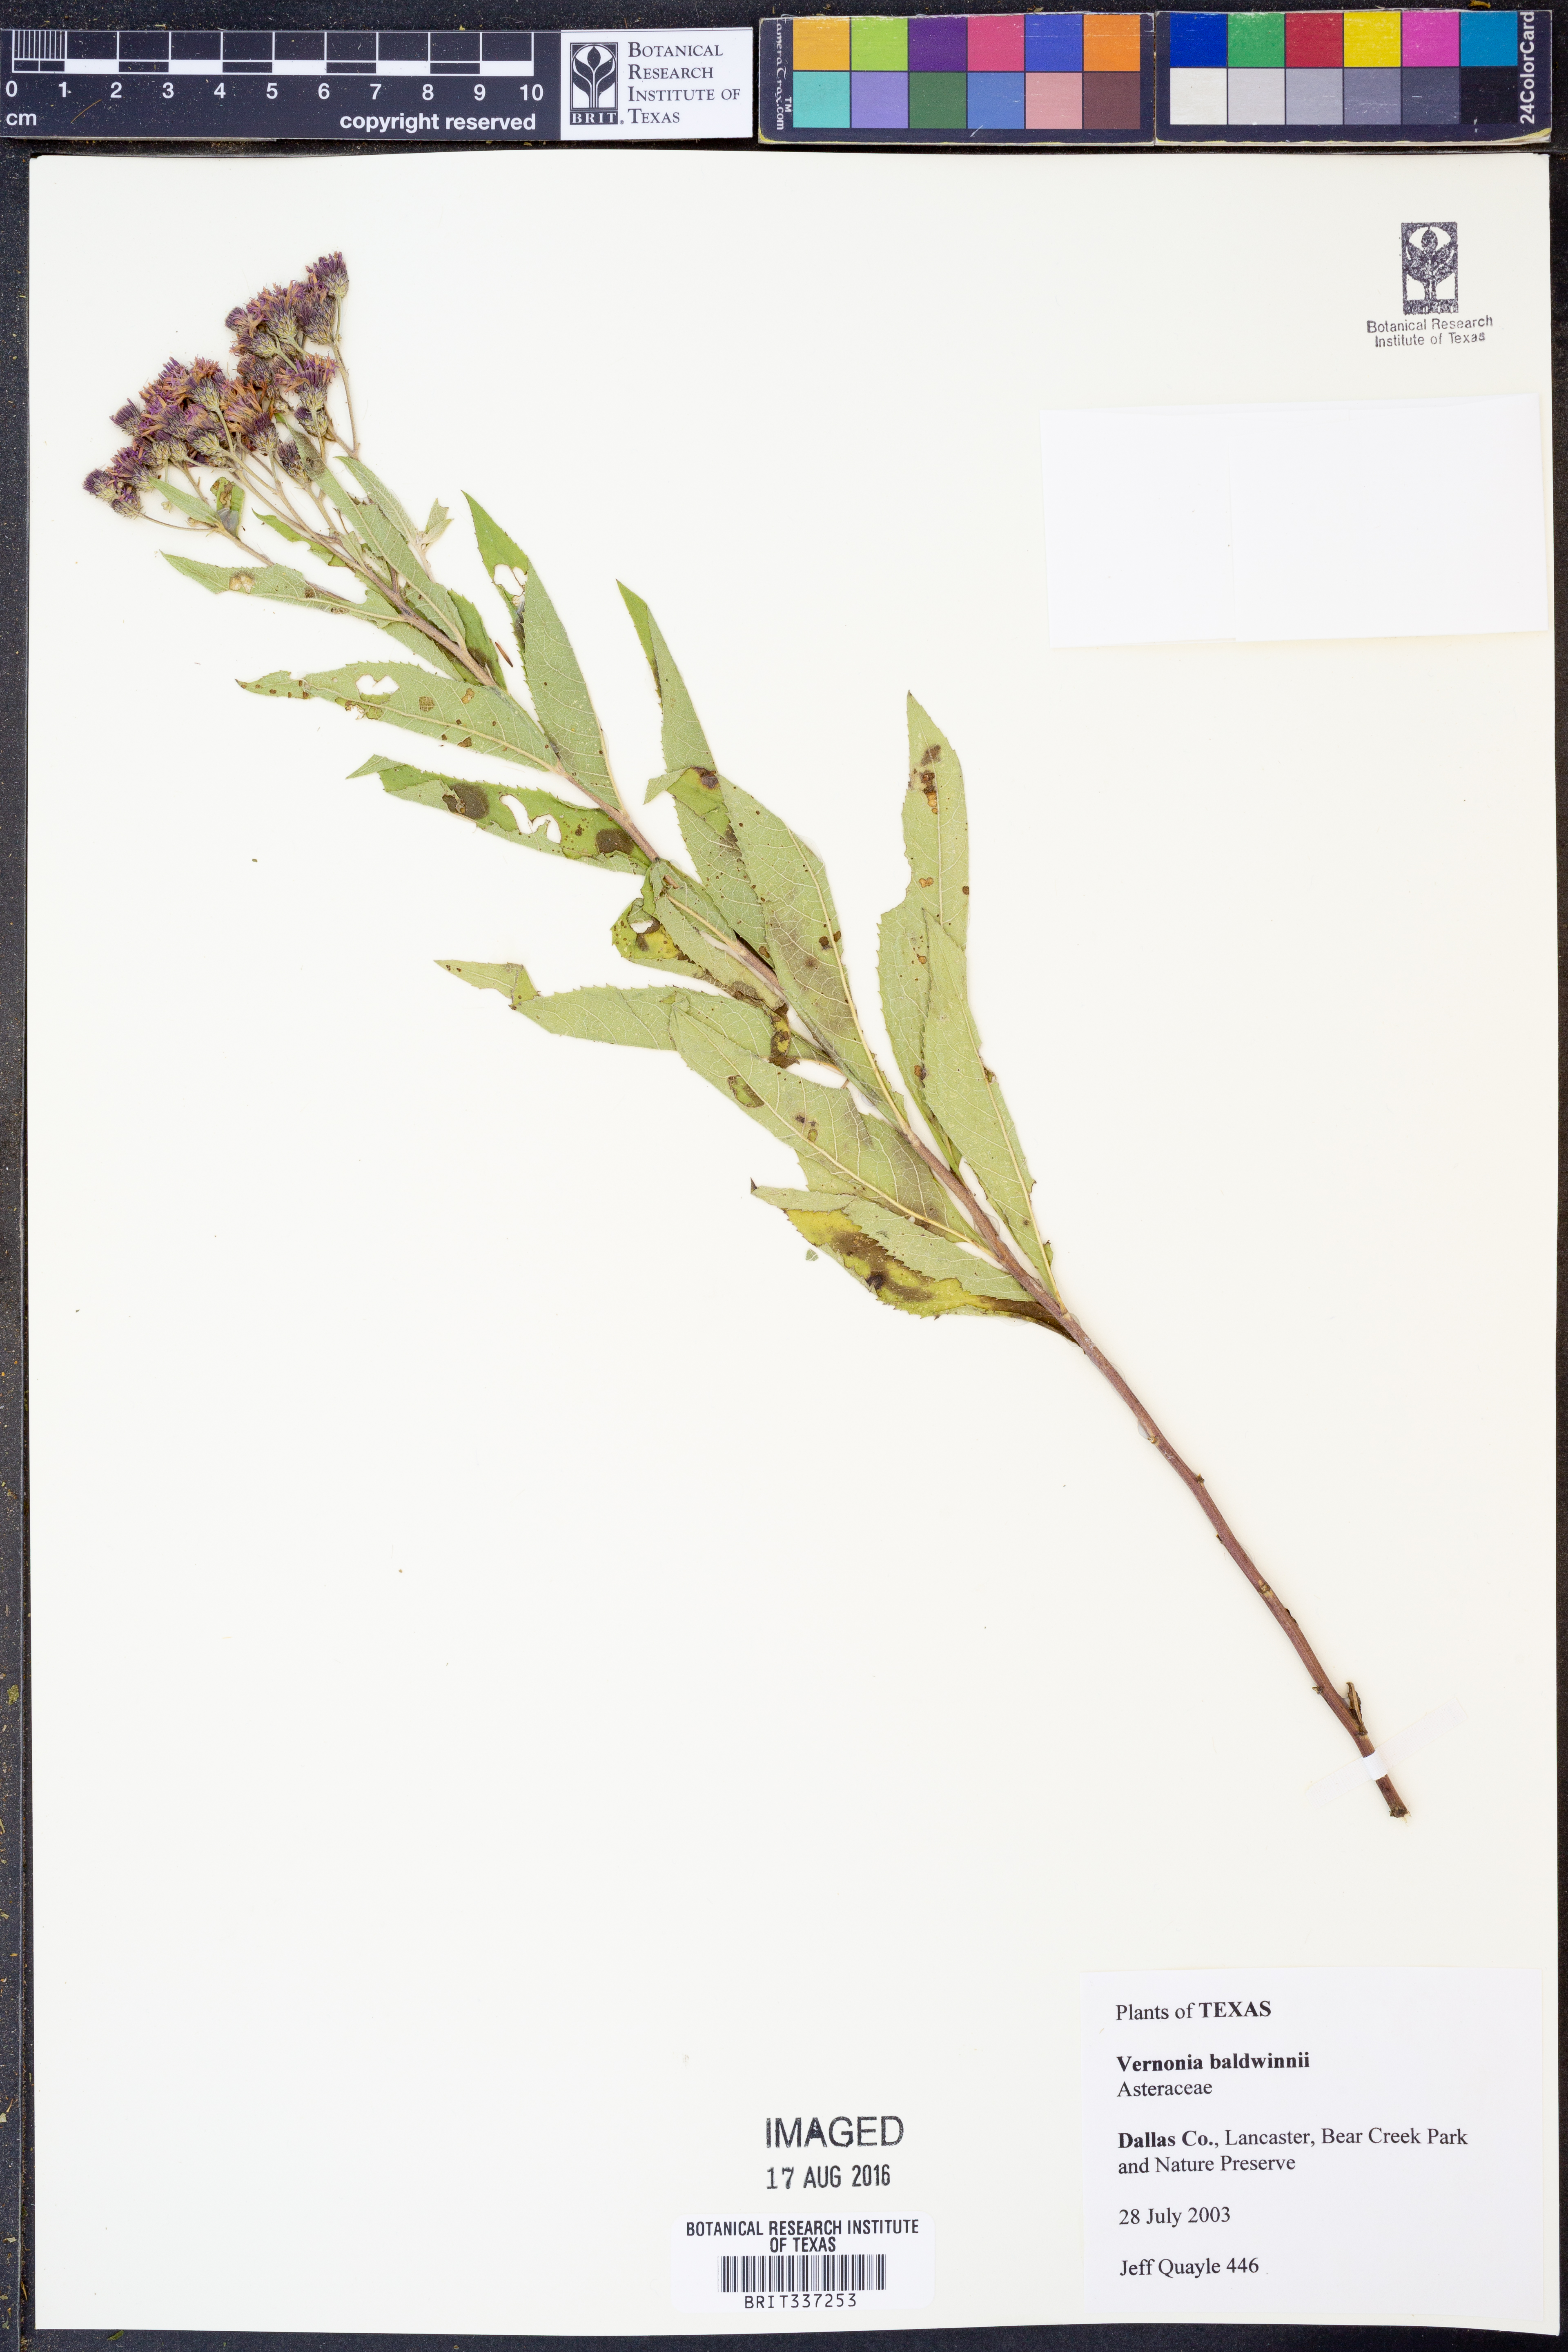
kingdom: Plantae
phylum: Tracheophyta
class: Magnoliopsida
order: Asterales
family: Asteraceae
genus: Vernonia
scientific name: Vernonia baldwinii
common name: Western ironweed
